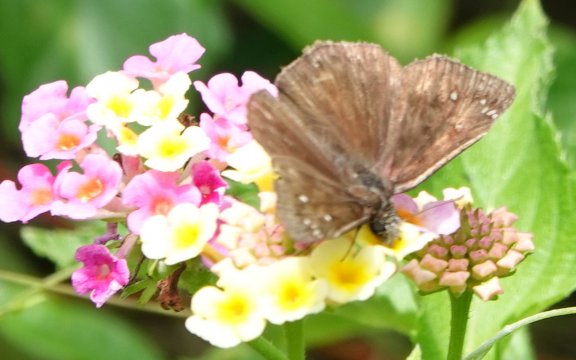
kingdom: Animalia
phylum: Arthropoda
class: Insecta
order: Lepidoptera
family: Hesperiidae
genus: Gesta
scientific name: Gesta
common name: Horace's Duskywing
